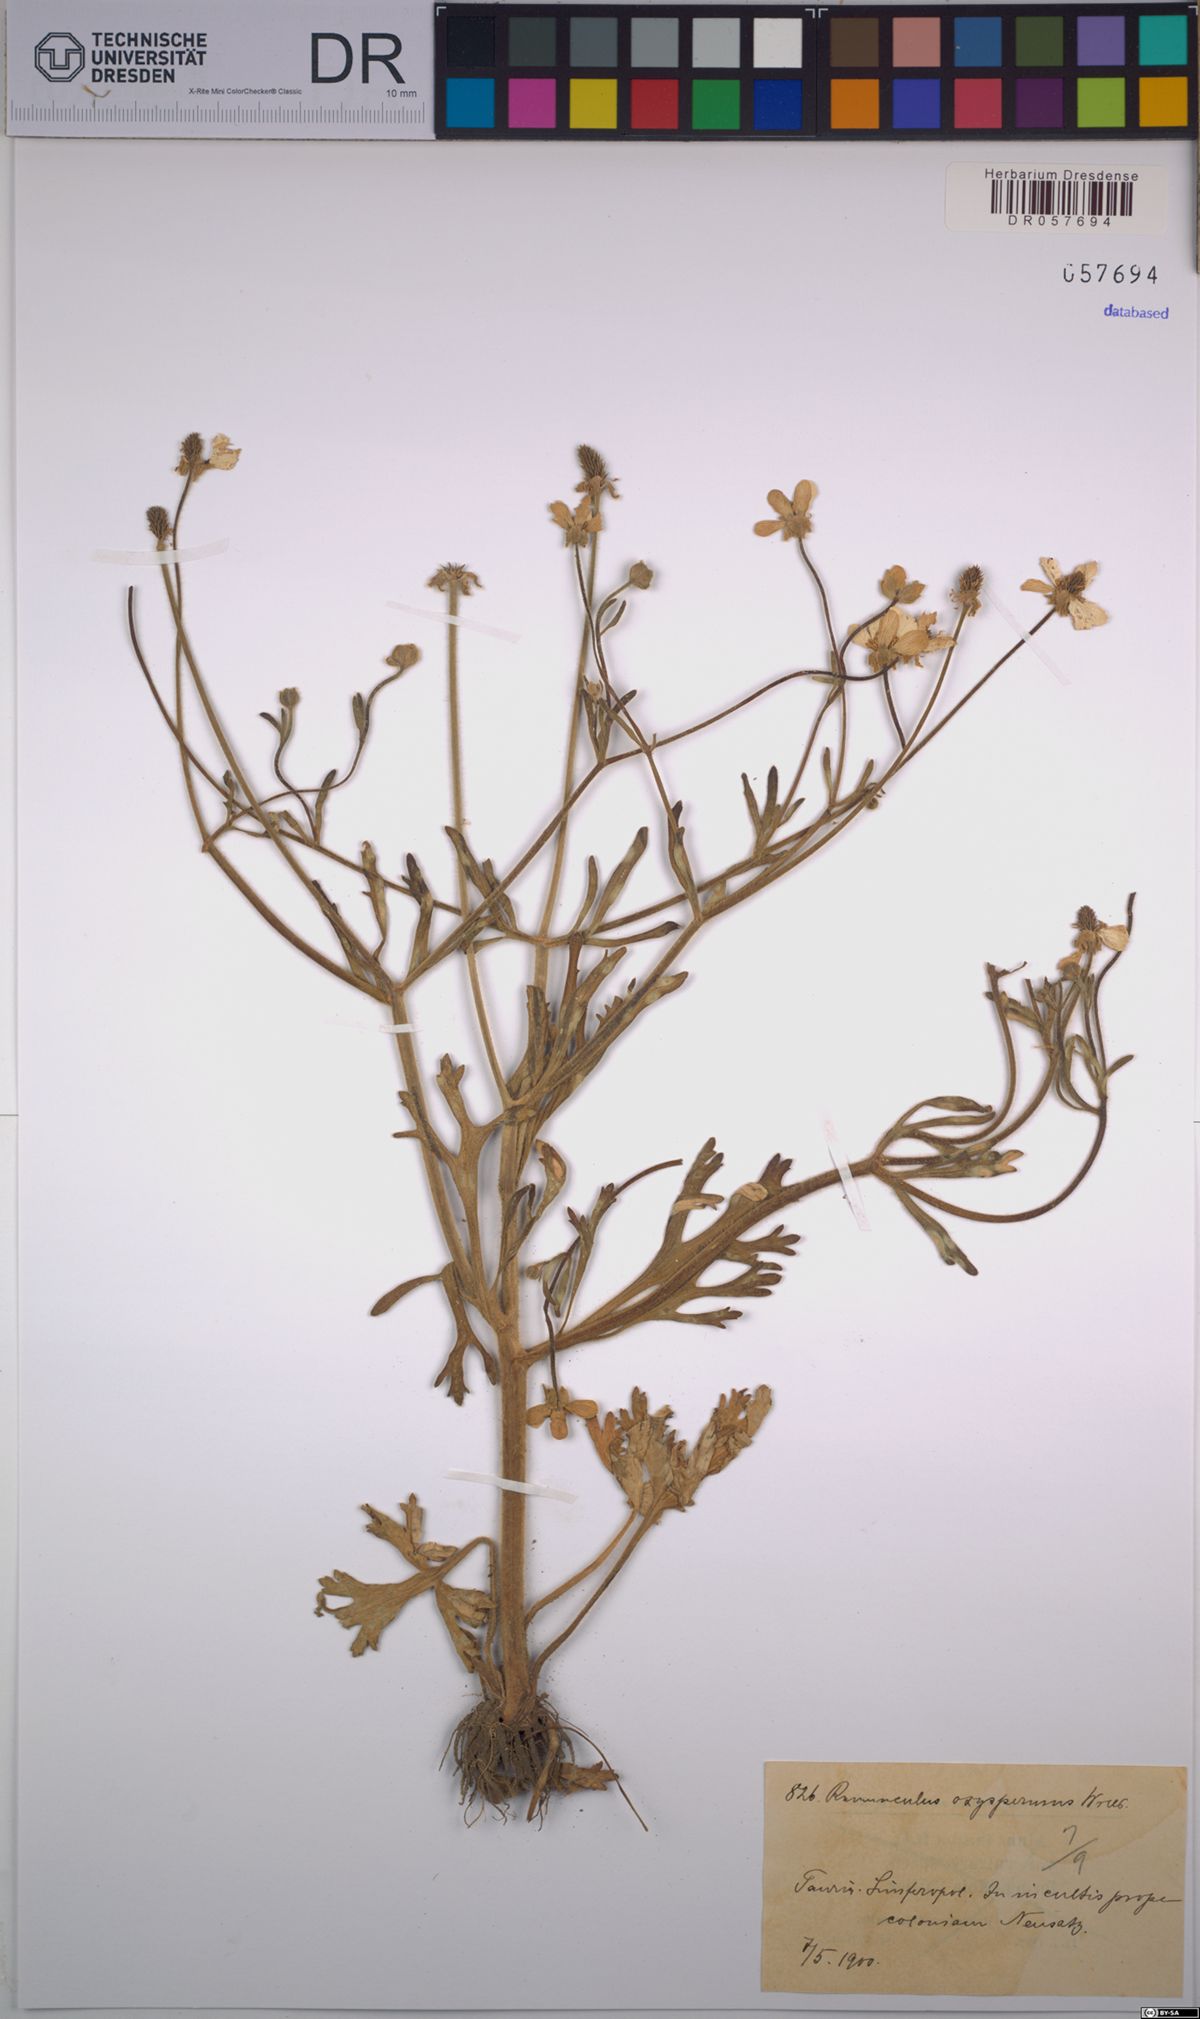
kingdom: Plantae
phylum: Tracheophyta
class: Magnoliopsida
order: Ranunculales
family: Ranunculaceae
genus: Ranunculus
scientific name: Ranunculus oxyspermus
